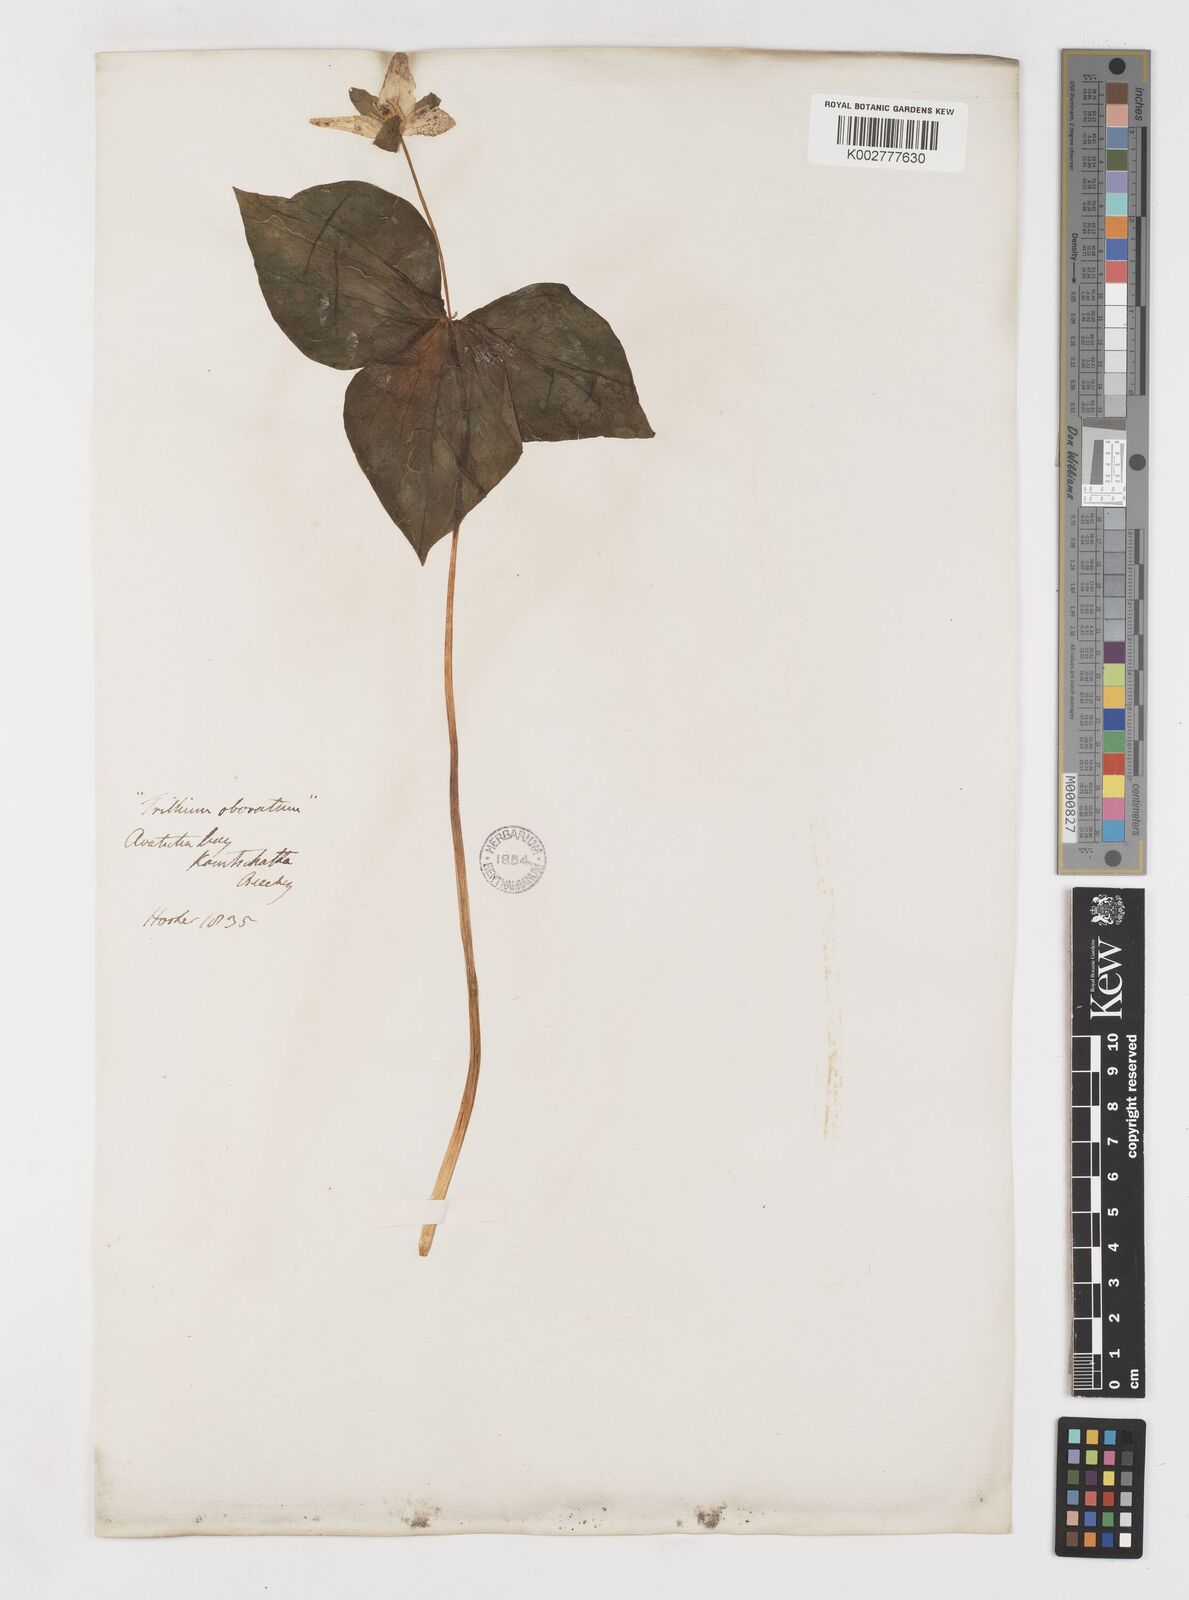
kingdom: Plantae
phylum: Tracheophyta
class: Liliopsida
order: Liliales
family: Melanthiaceae
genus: Trillium
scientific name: Trillium erectum
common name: Purple trillium
